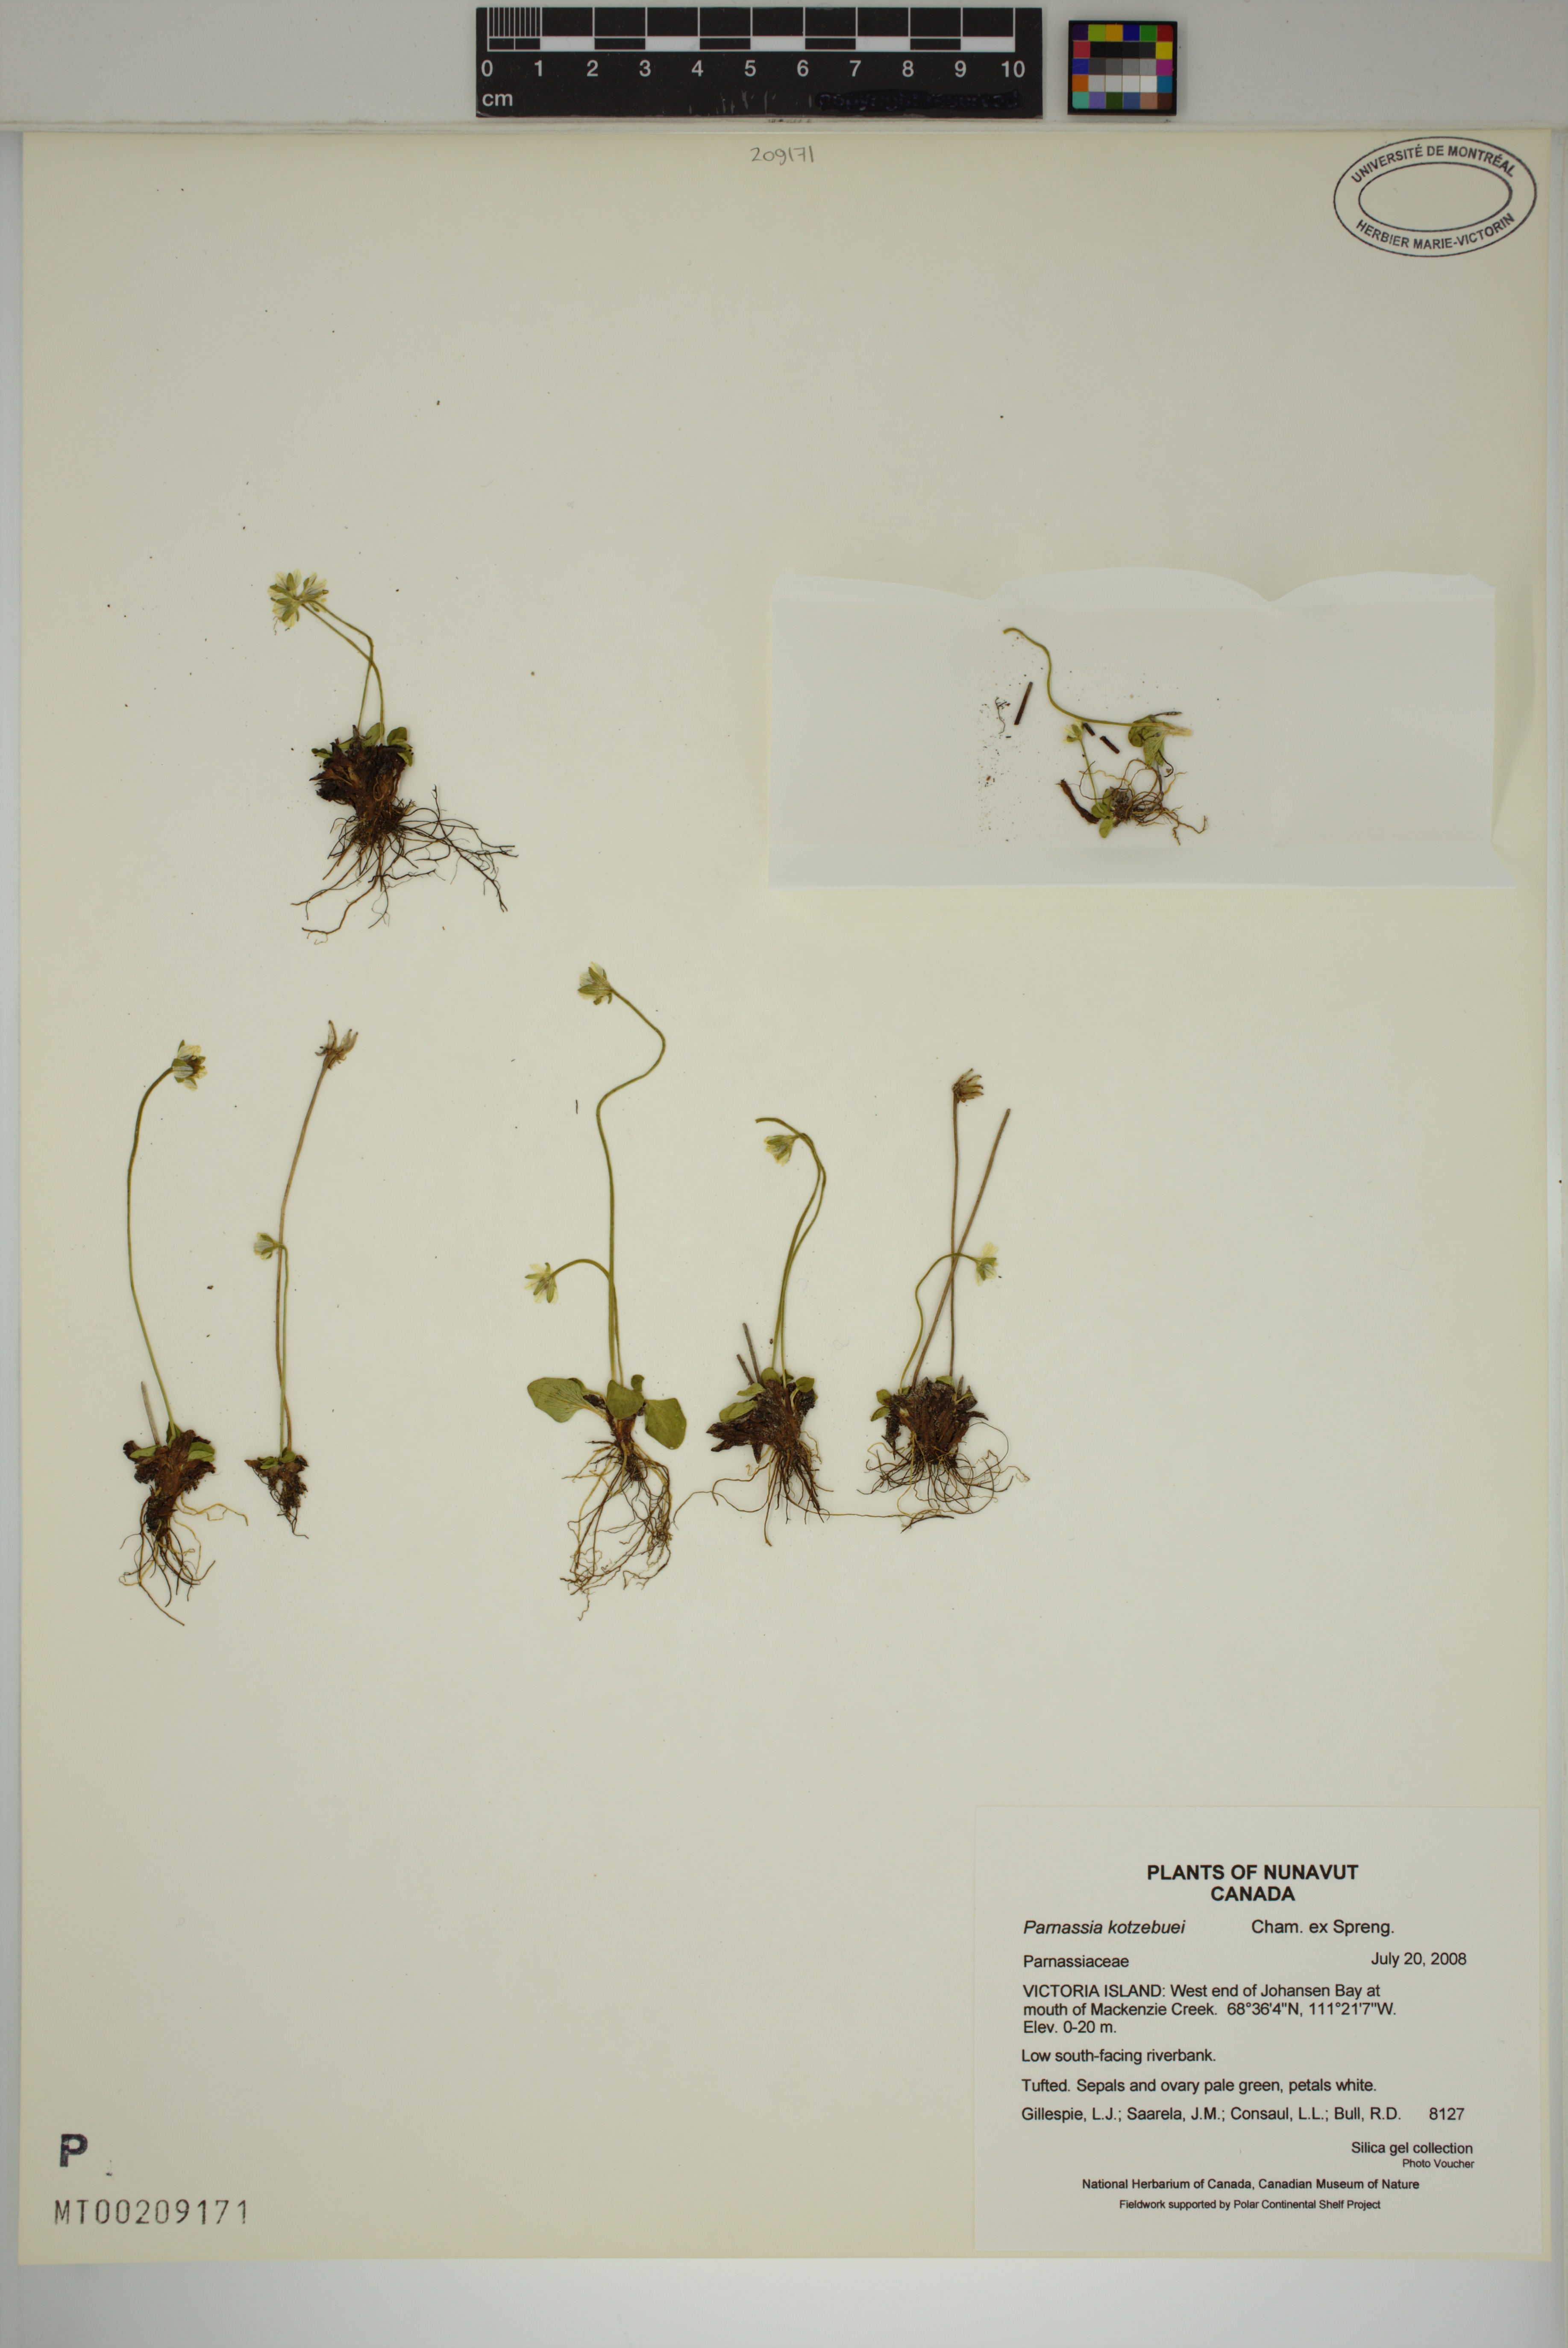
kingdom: Plantae
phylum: Tracheophyta
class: Magnoliopsida
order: Celastrales
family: Parnassiaceae
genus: Parnassia
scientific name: Parnassia kotzebuei
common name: Kotzebue's grass-of-parnassus
